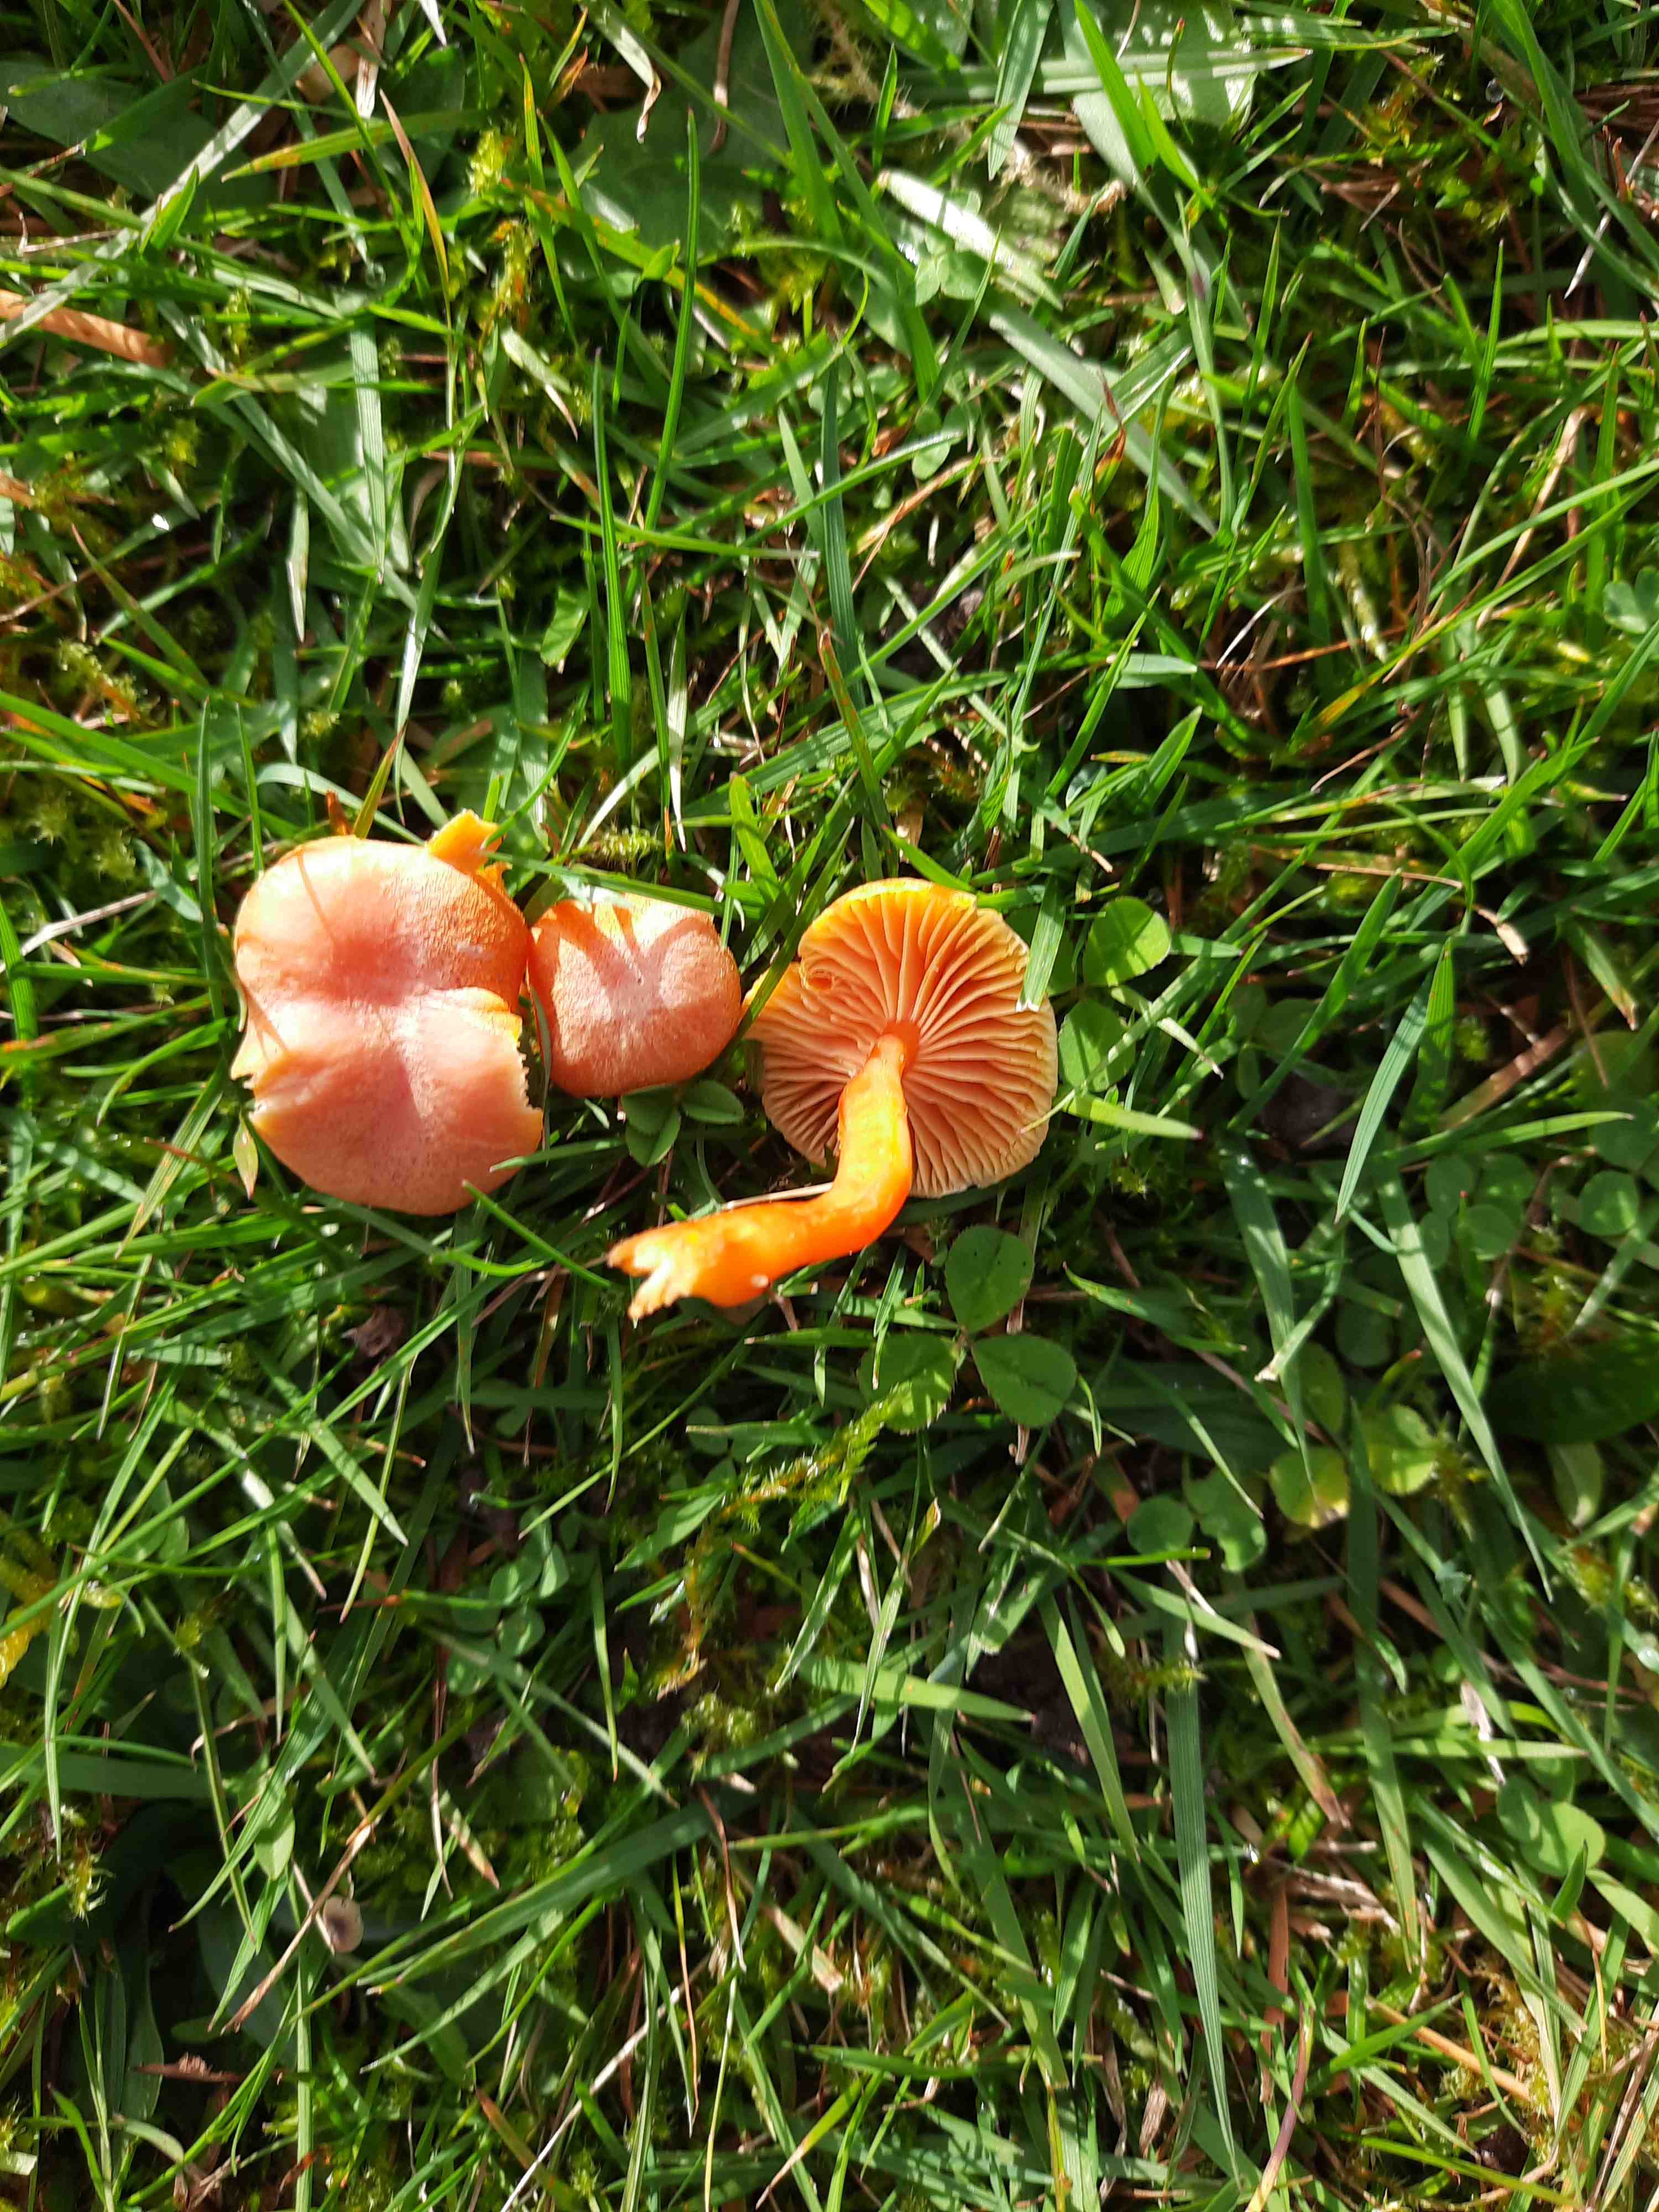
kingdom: Fungi
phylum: Basidiomycota
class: Agaricomycetes
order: Agaricales
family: Hygrophoraceae
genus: Hygrocybe
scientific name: Hygrocybe miniata
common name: mønje-vokshat
